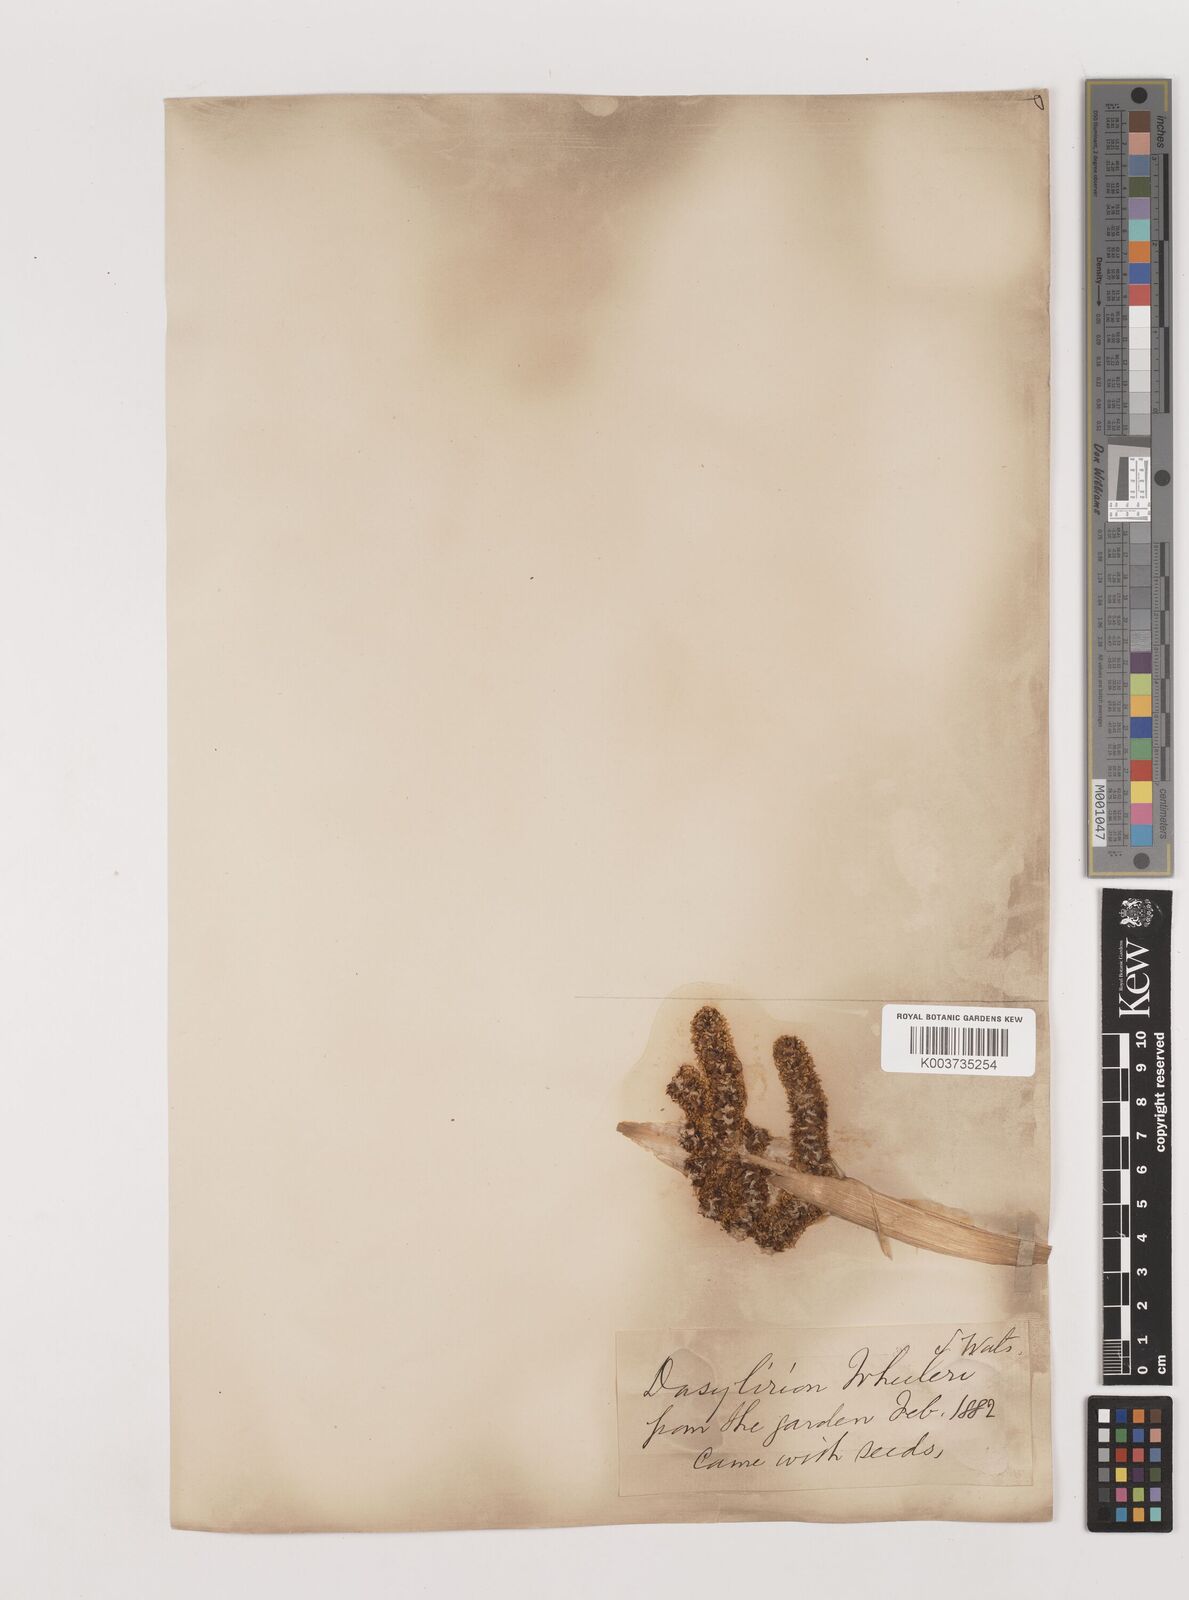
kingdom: Plantae
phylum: Tracheophyta
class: Liliopsida
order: Asparagales
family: Asparagaceae
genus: Dasylirion
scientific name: Dasylirion wheeleri
